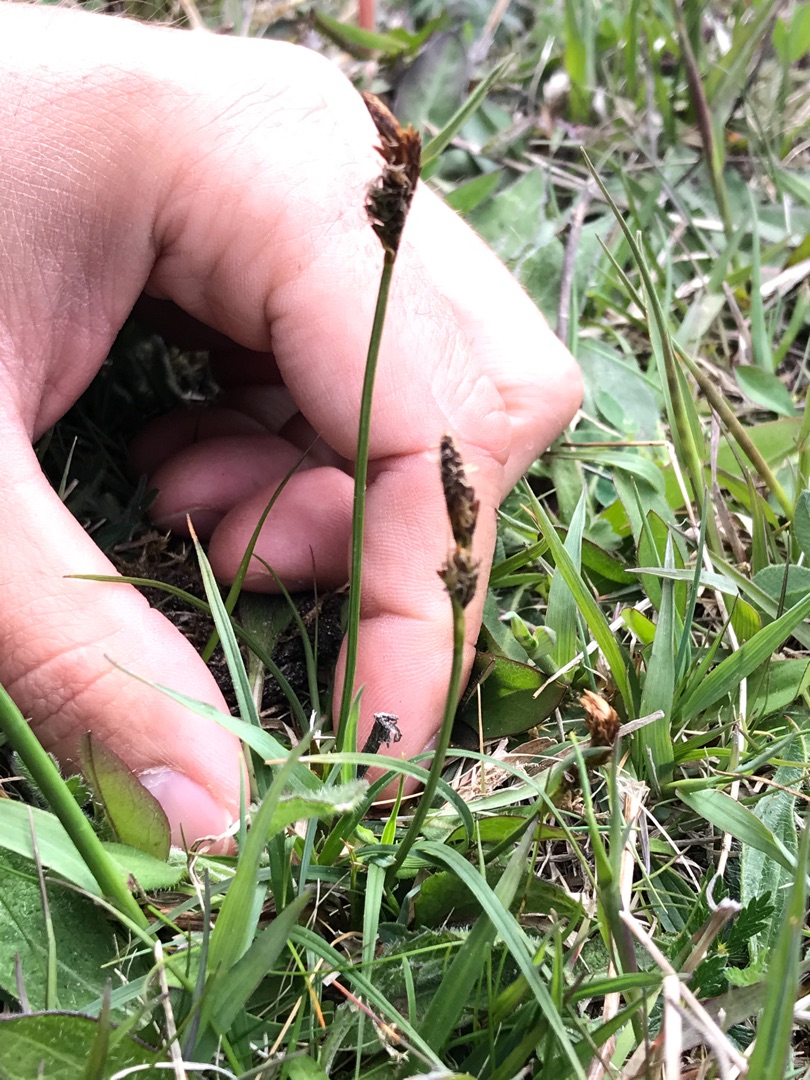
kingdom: Plantae
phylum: Tracheophyta
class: Liliopsida
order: Poales
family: Cyperaceae
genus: Carex
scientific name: Carex caryophyllea
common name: Vår-star
